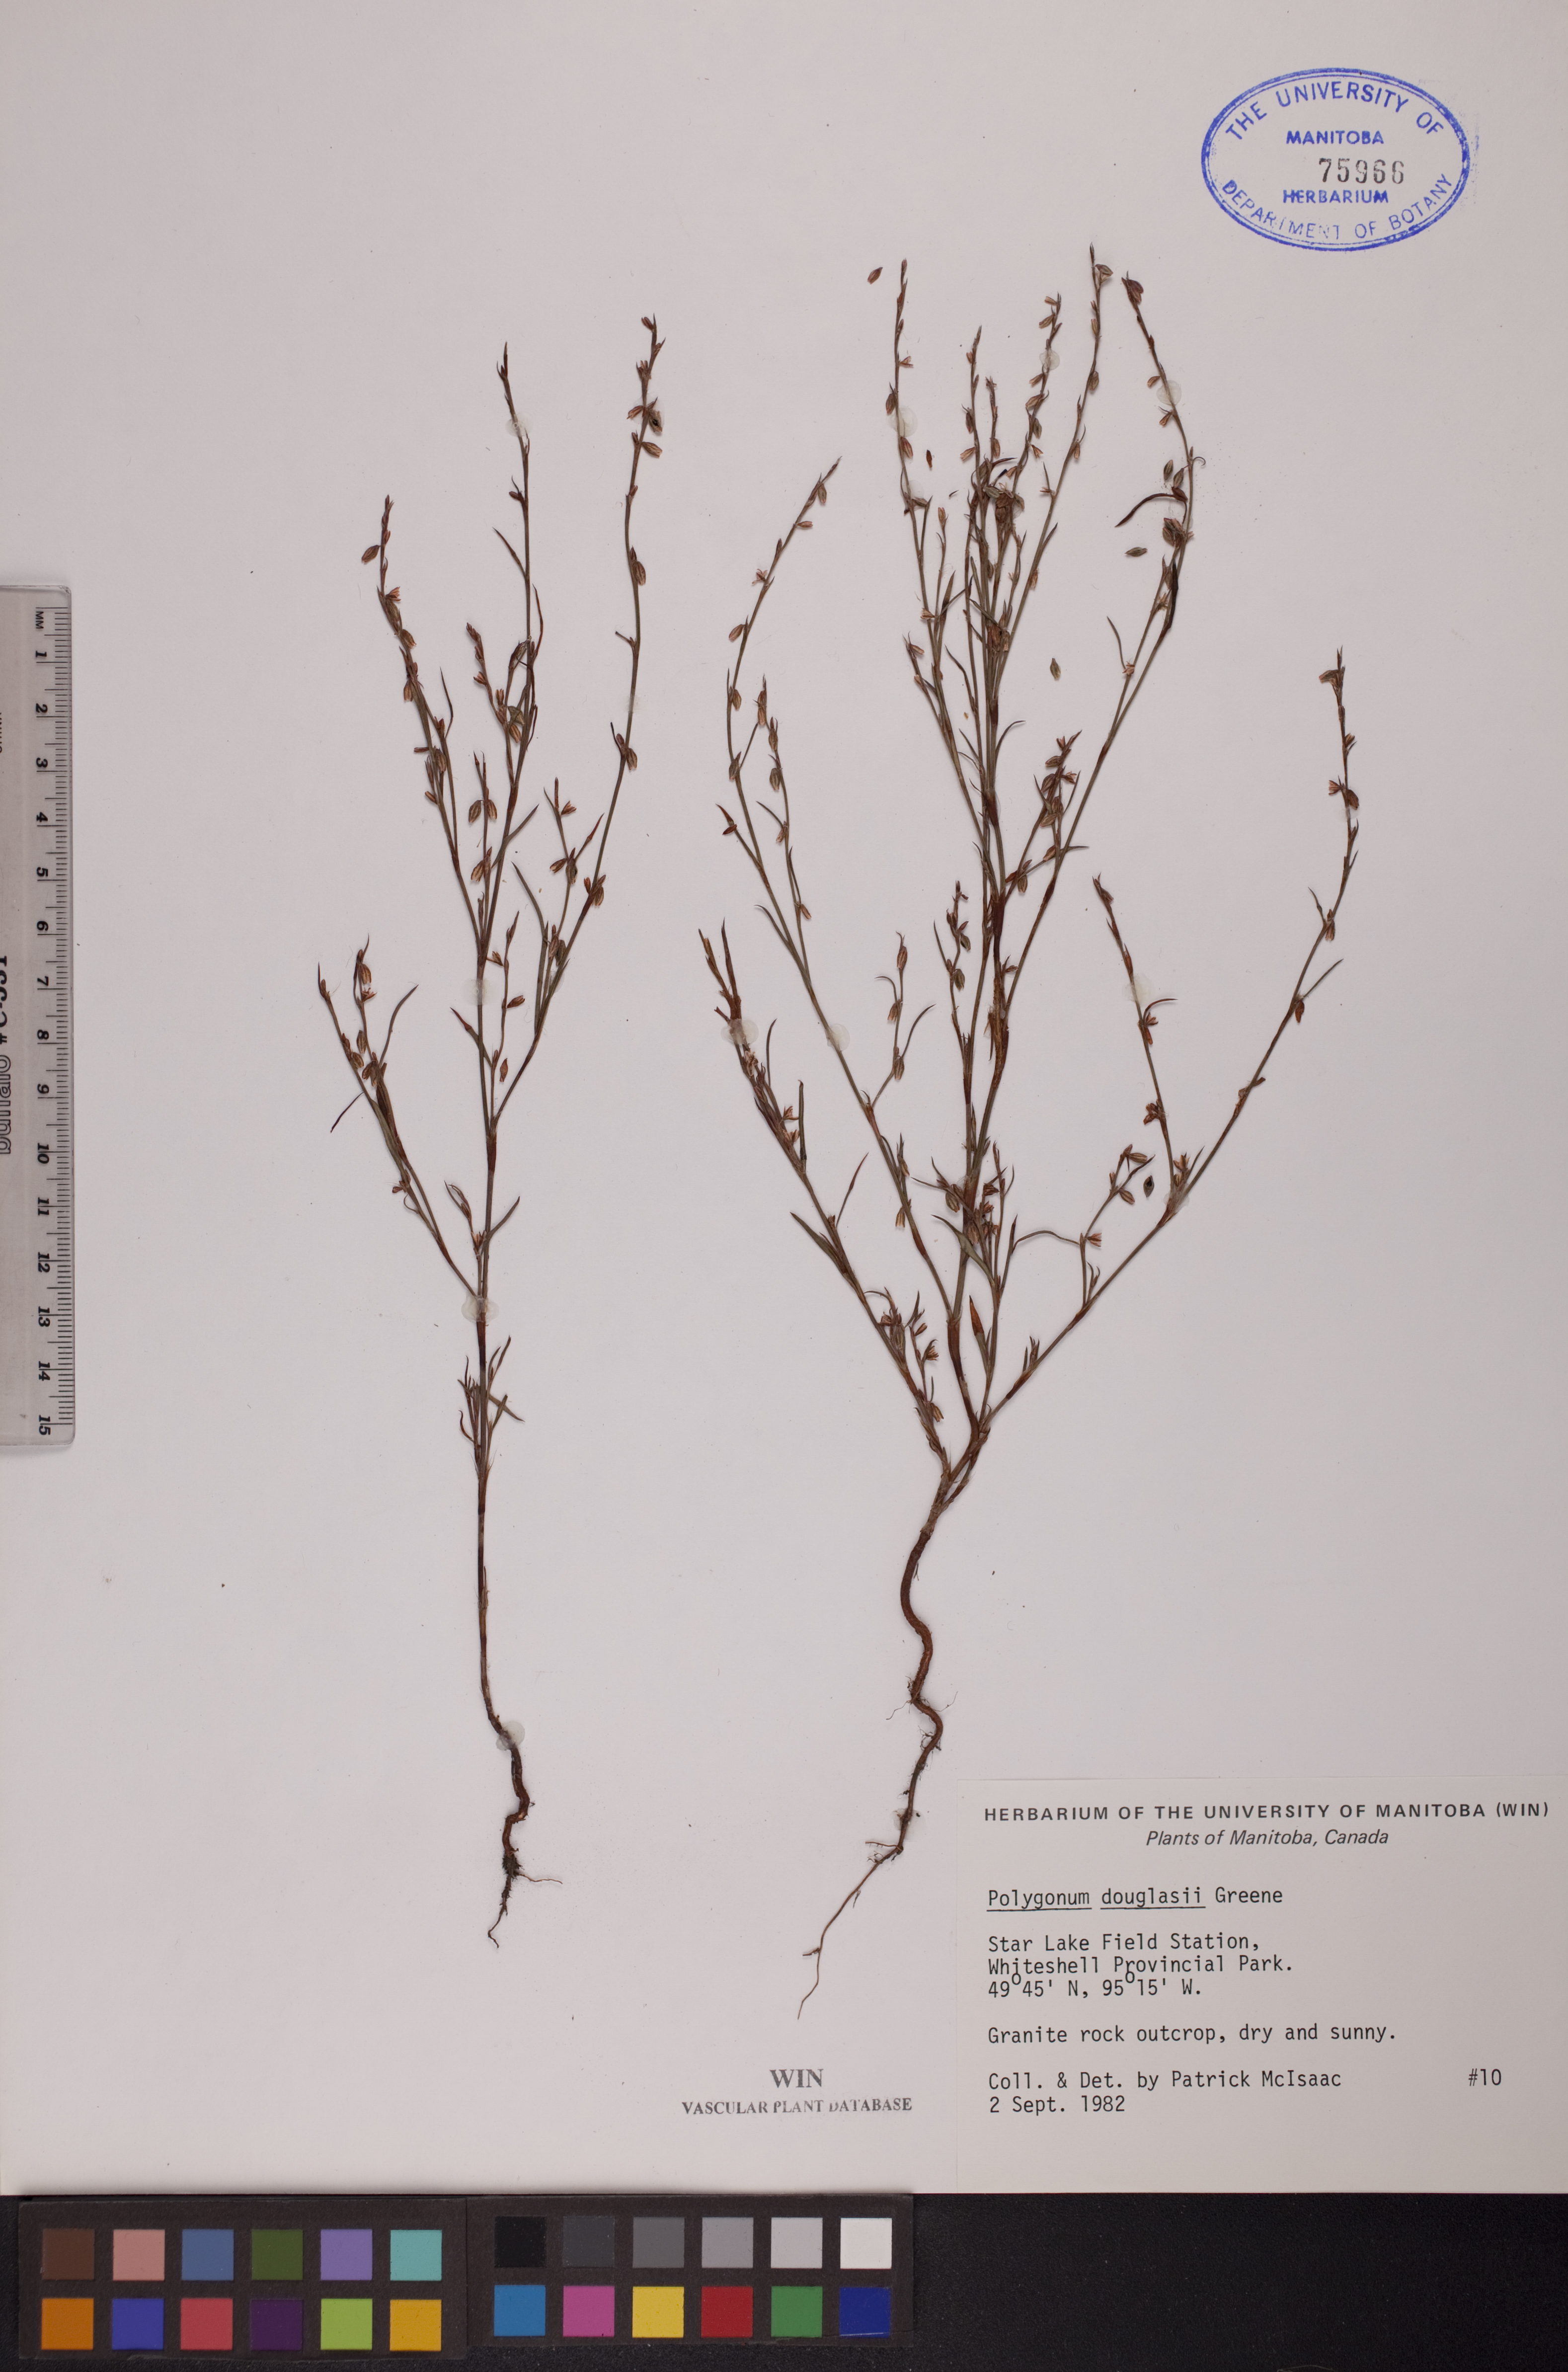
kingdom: Plantae
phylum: Tracheophyta
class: Magnoliopsida
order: Caryophyllales
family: Polygonaceae
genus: Polygonum
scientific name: Polygonum douglasii
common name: Douglas' knotweed
